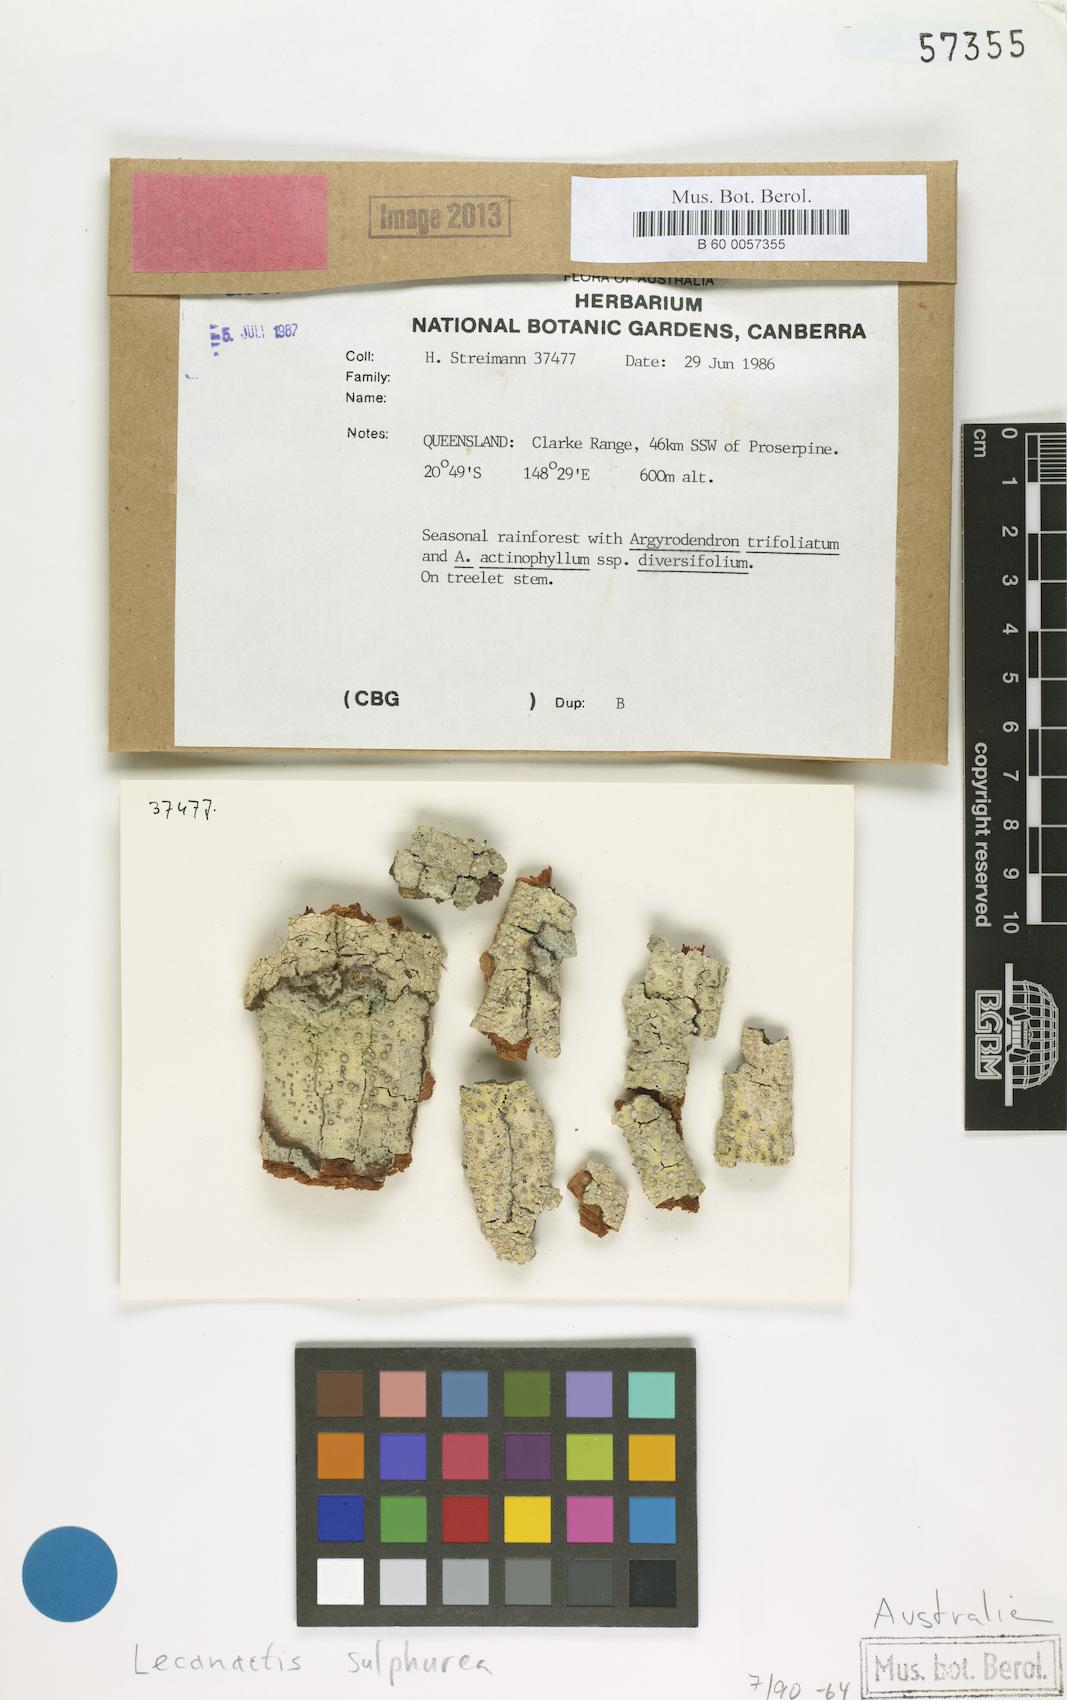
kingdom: Fungi
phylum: Ascomycota
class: Arthoniomycetes
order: Arthoniales
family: Roccellaceae
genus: Lecanactis
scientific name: Lecanactis sulphurea
